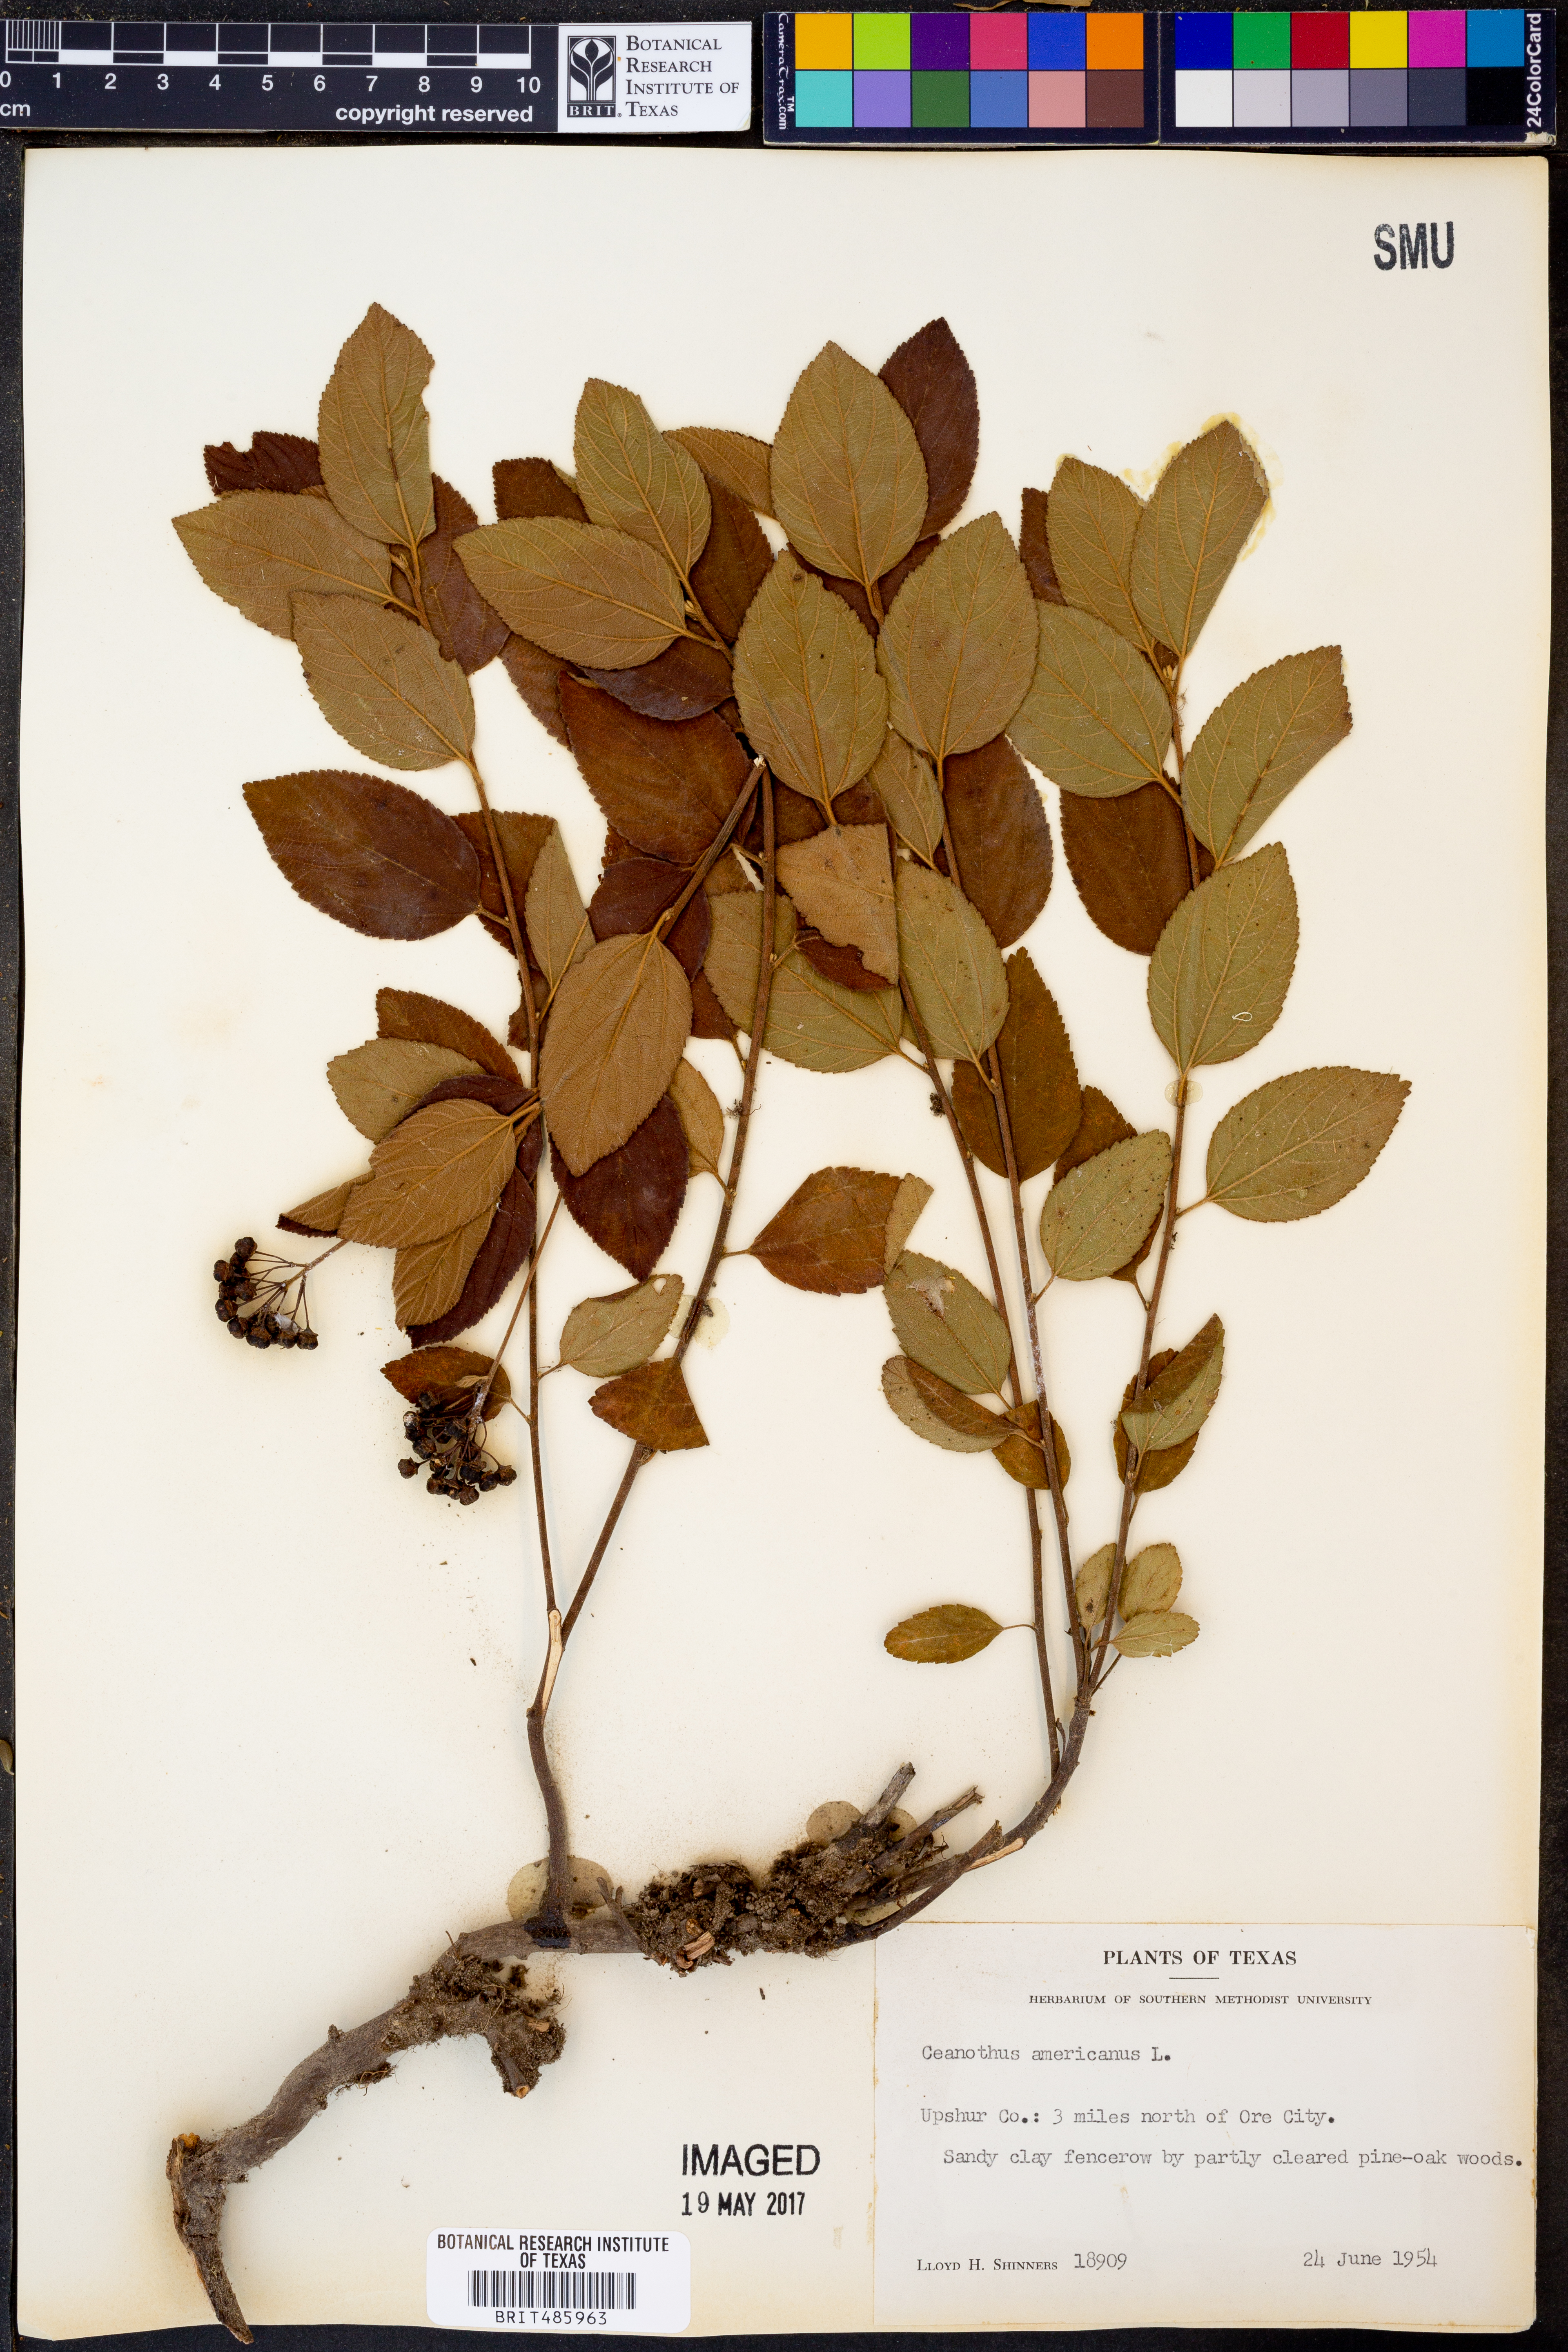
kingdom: Plantae
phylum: Tracheophyta
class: Magnoliopsida
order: Rosales
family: Rhamnaceae
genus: Ceanothus
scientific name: Ceanothus americanus
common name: Redroot
